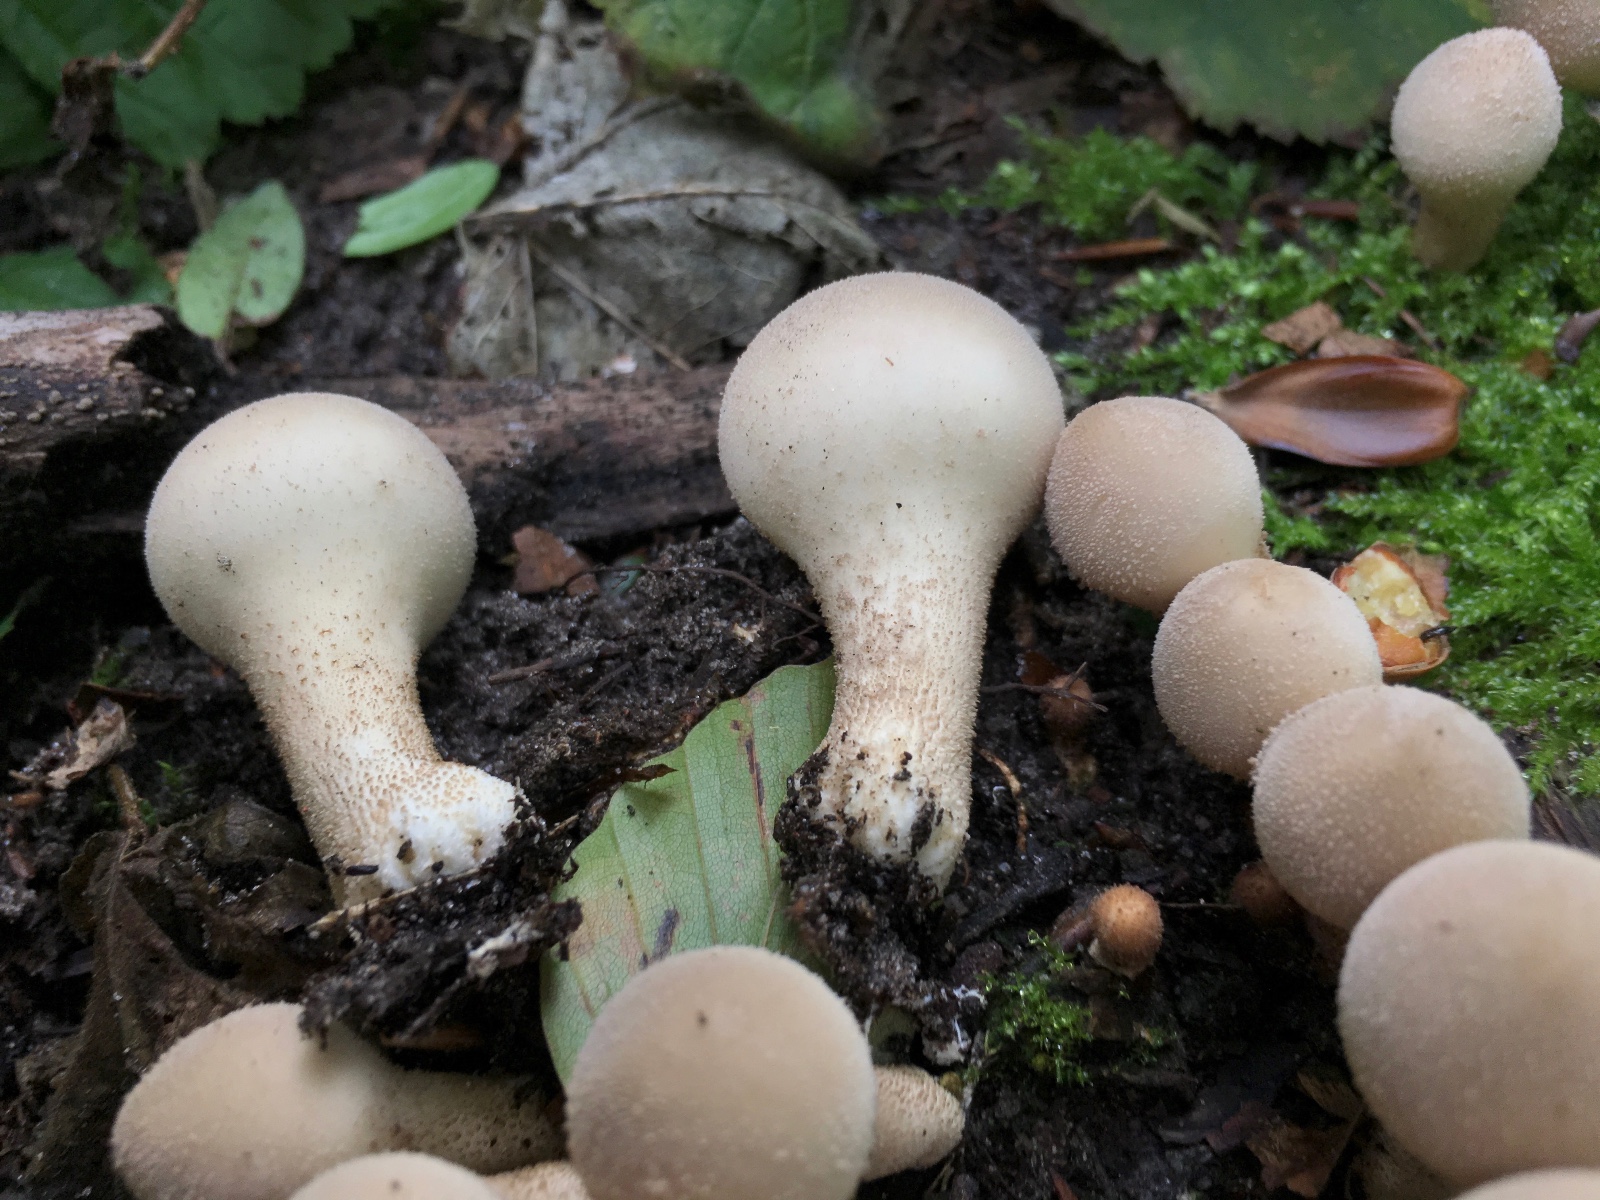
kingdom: Fungi
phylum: Basidiomycota
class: Agaricomycetes
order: Agaricales
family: Lycoperdaceae
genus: Apioperdon
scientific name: Apioperdon pyriforme
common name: pære-støvbold
